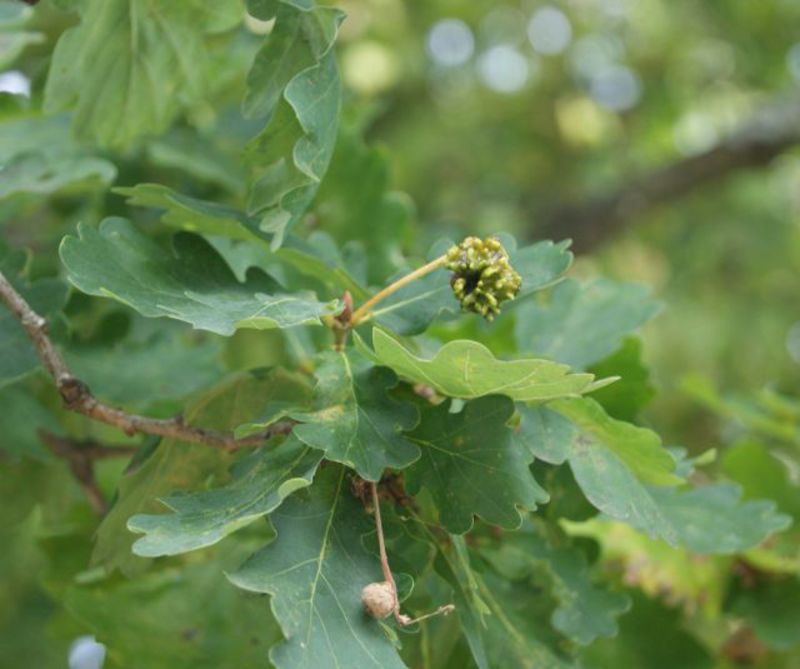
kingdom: Animalia
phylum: Arthropoda
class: Insecta
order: Hymenoptera
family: Cynipidae
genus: Andricus
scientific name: Andricus quercuscalicis
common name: Knopper gall
